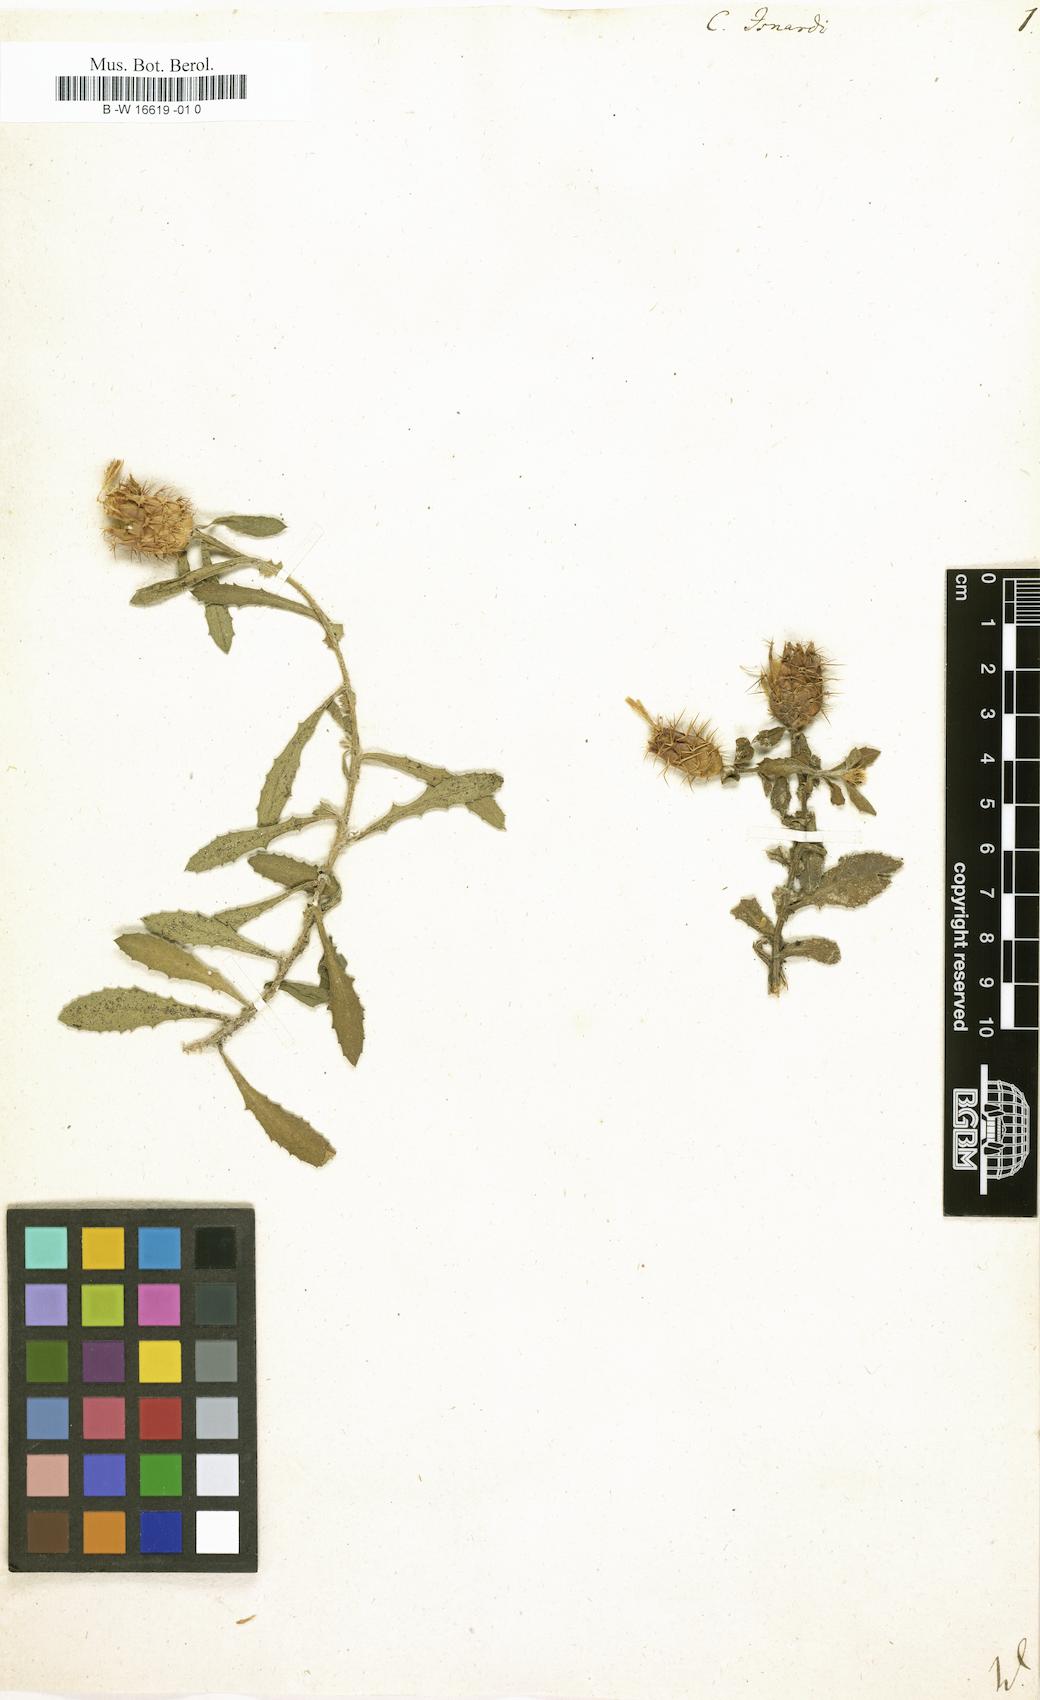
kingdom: Plantae
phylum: Tracheophyta
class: Magnoliopsida
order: Asterales
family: Asteraceae
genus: Centaurea
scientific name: Centaurea aspera
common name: Rough star-thistle
